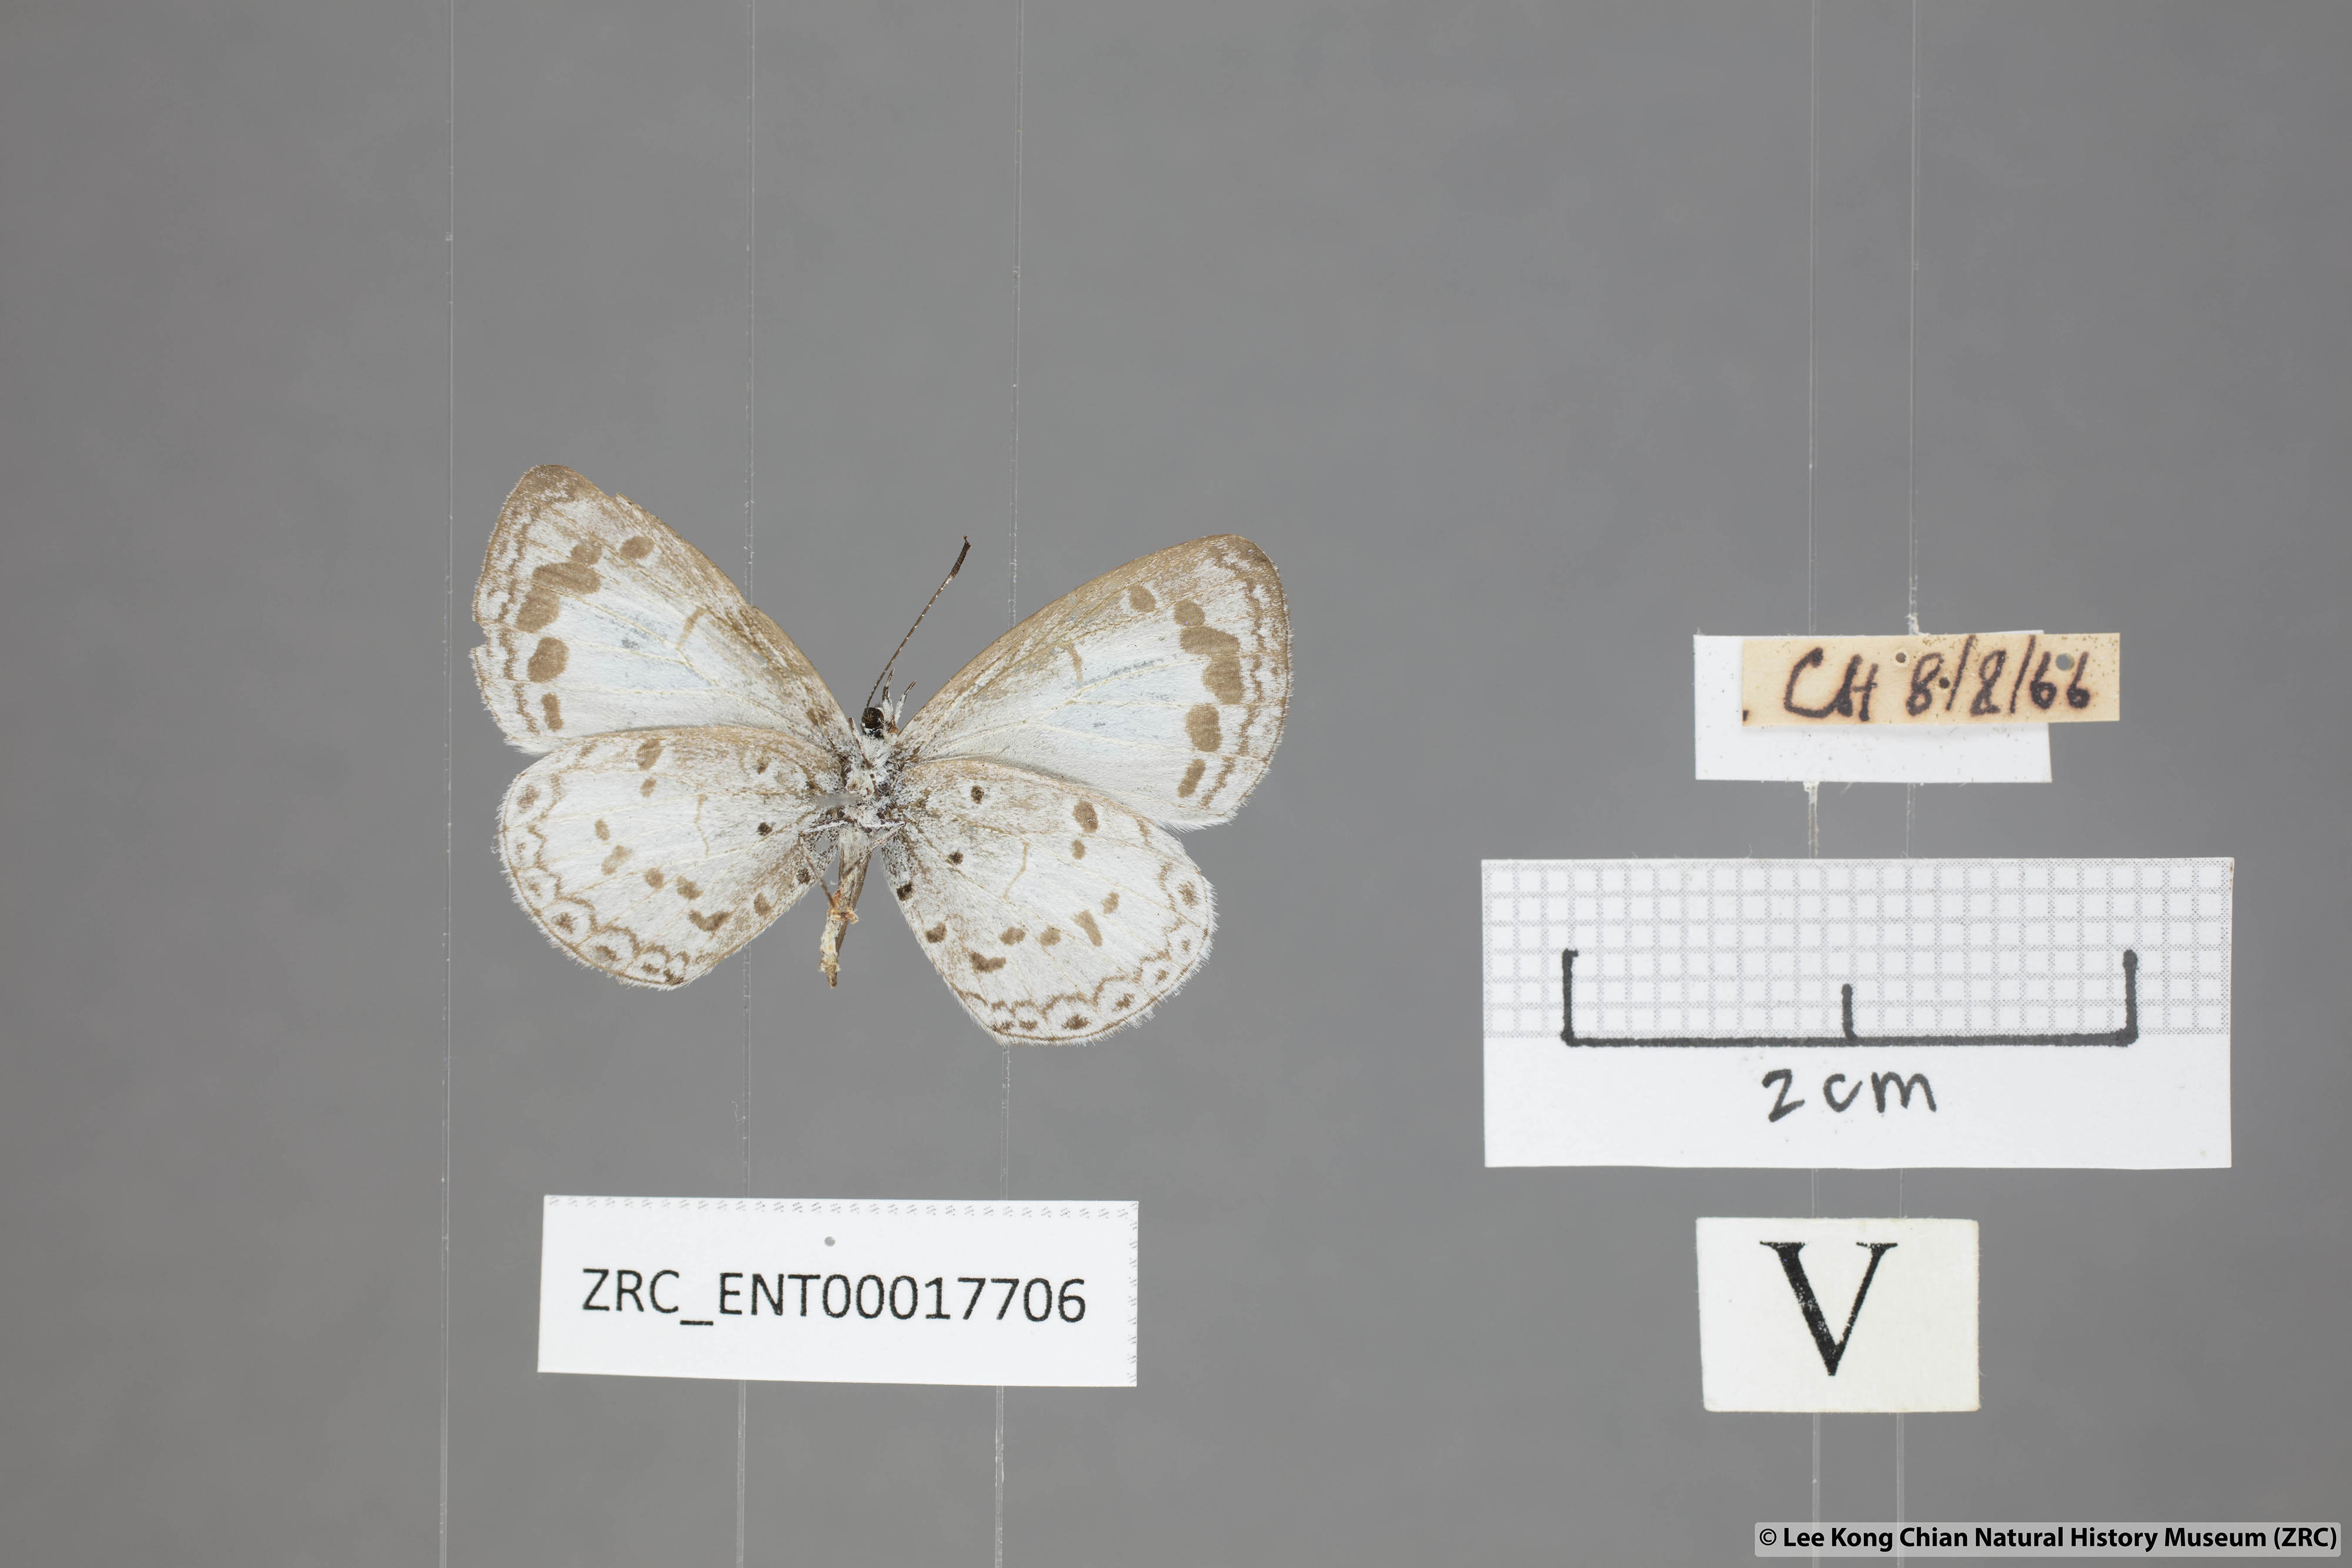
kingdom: Animalia
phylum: Arthropoda
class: Insecta
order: Lepidoptera
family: Lycaenidae
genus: Lycaenopsis
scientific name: Lycaenopsis marginata
